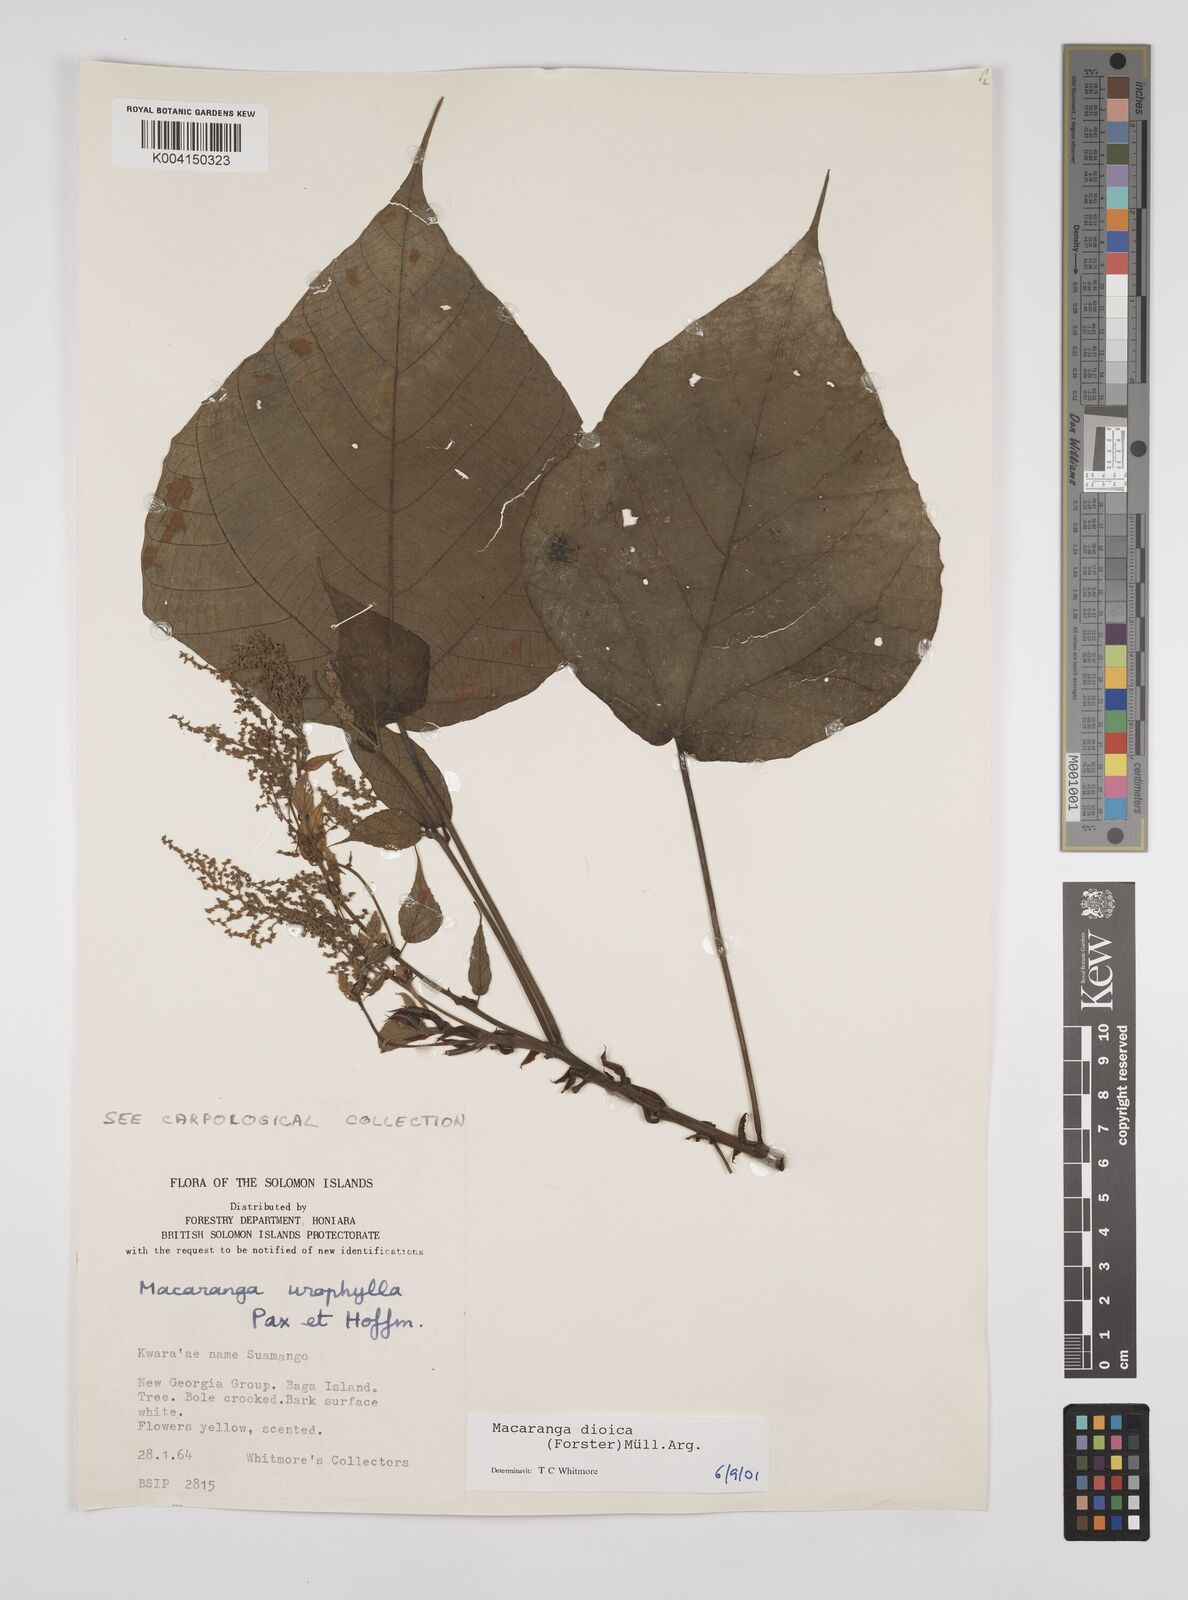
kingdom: Plantae
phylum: Tracheophyta
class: Magnoliopsida
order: Malpighiales
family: Euphorbiaceae
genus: Macaranga
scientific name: Macaranga dioica
